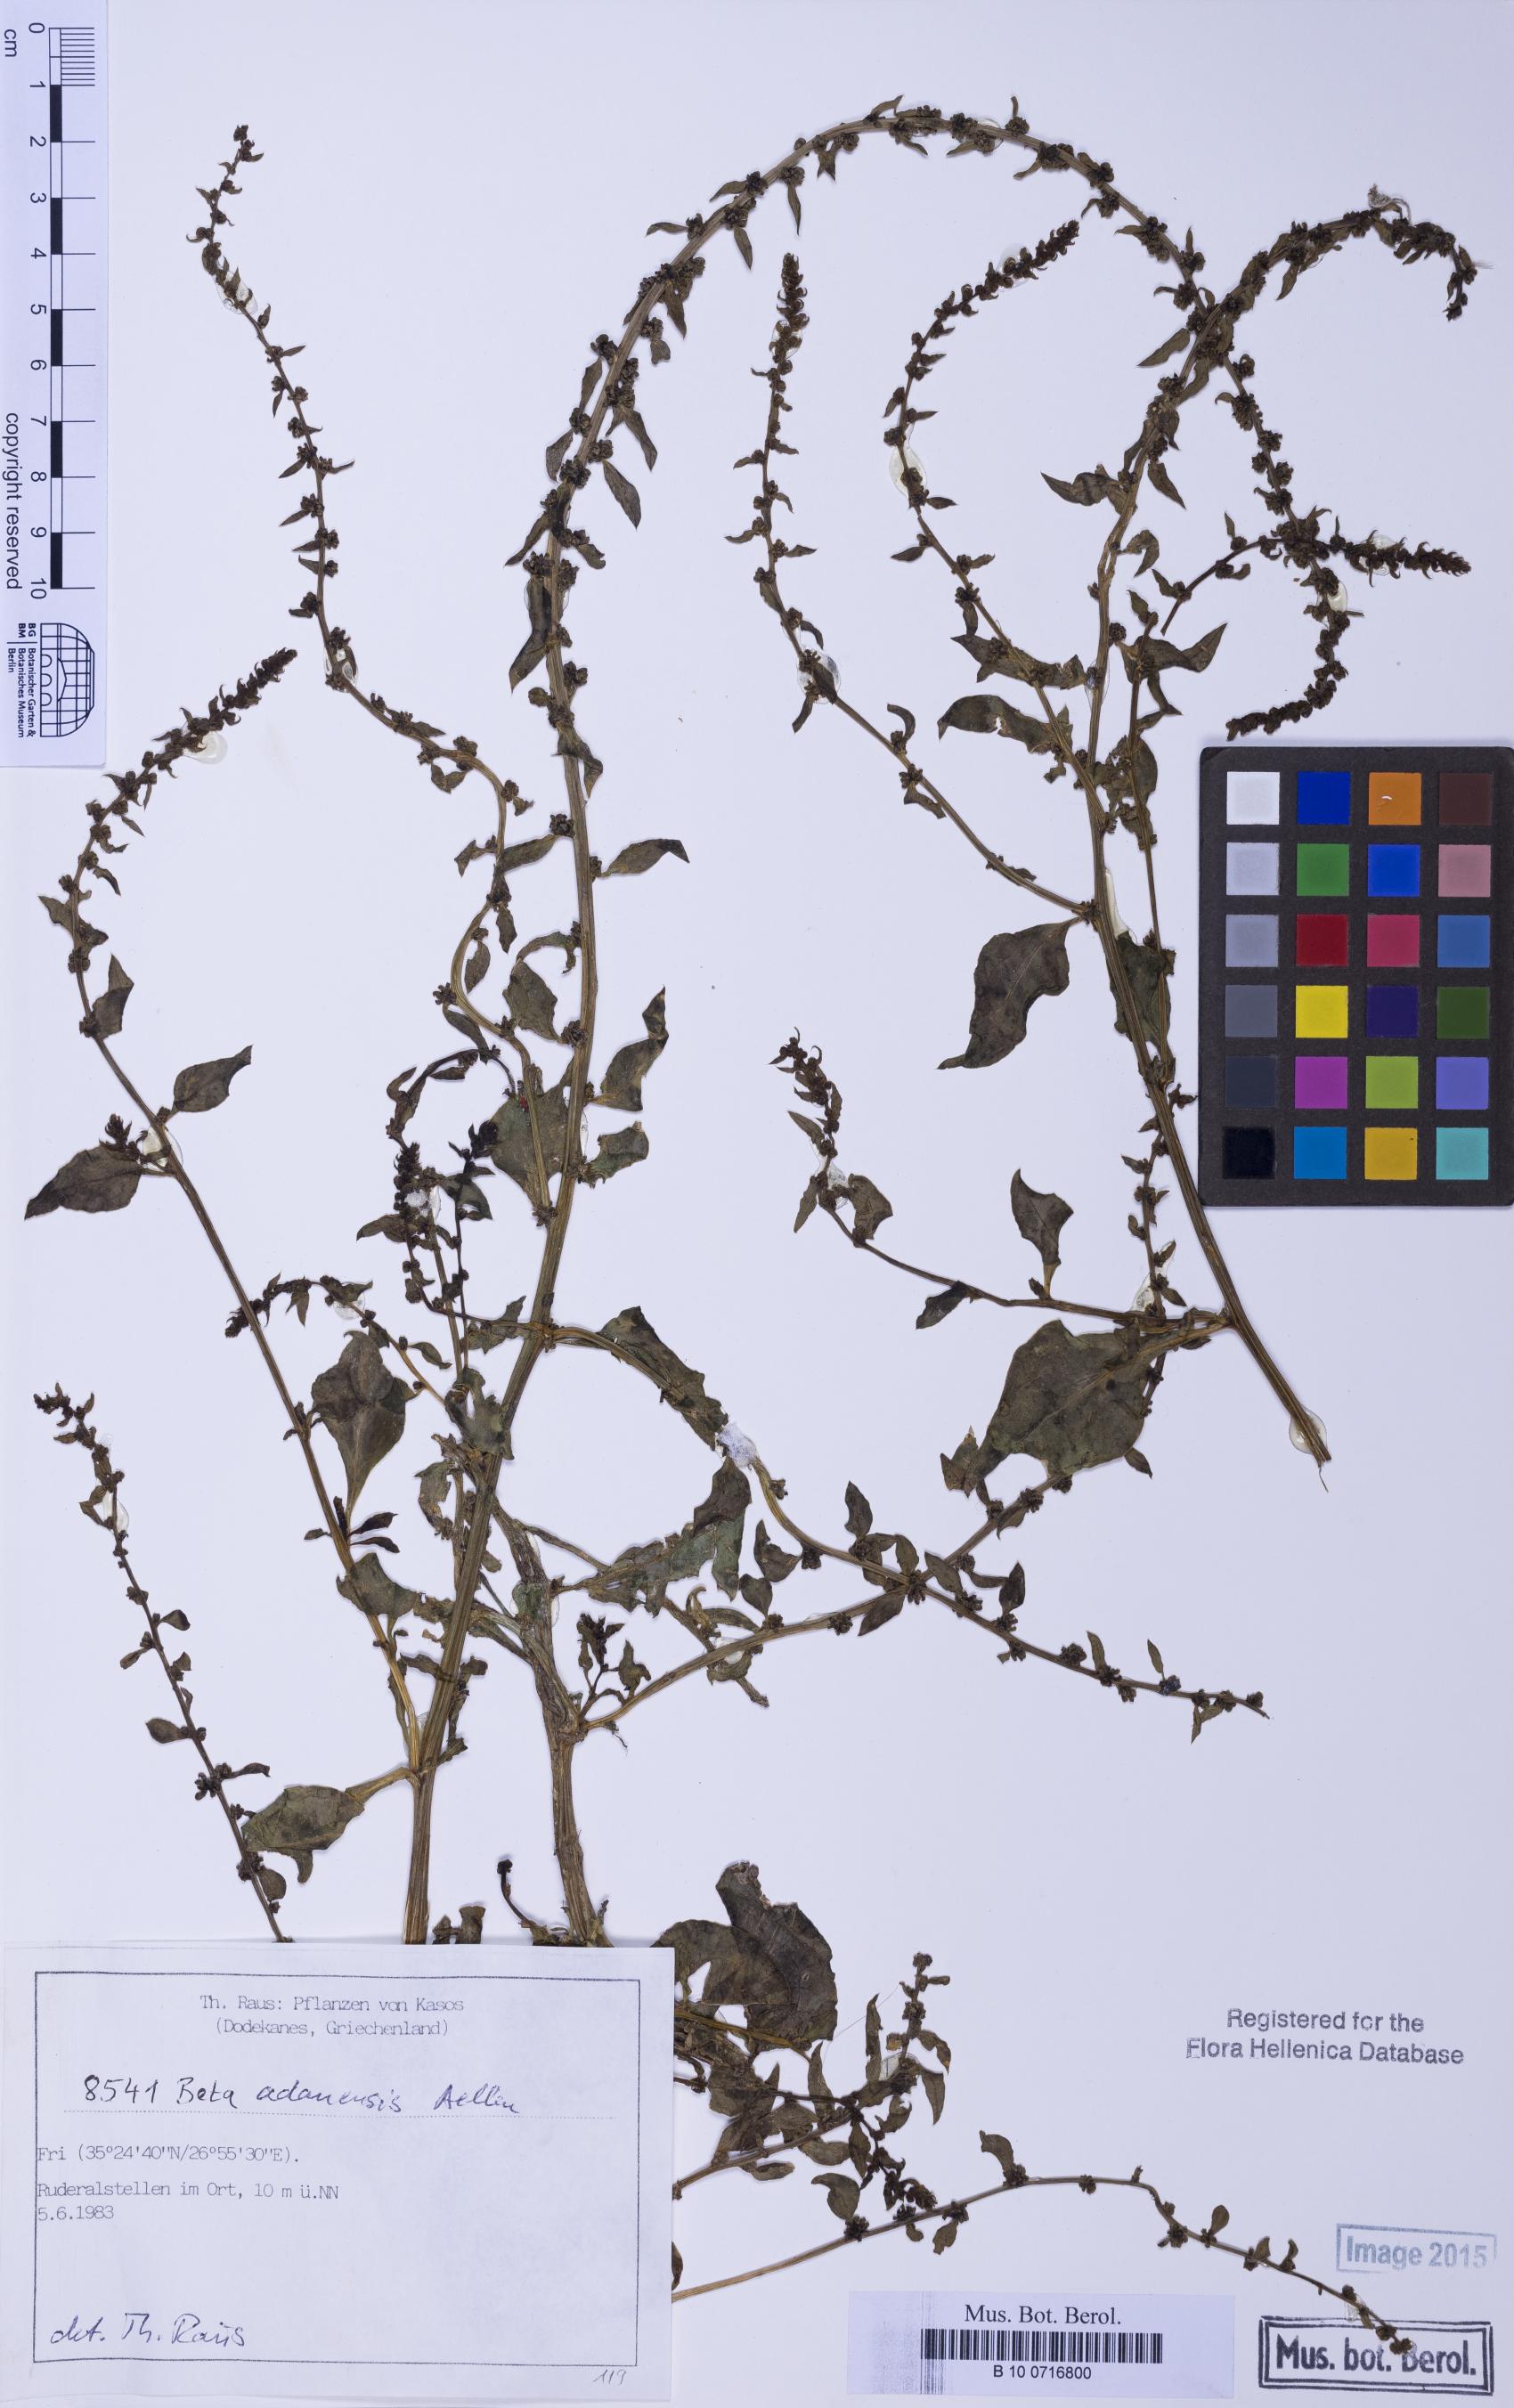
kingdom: Plantae
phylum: Tracheophyta
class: Magnoliopsida
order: Caryophyllales
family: Amaranthaceae
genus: Beta
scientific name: Beta adanensis
